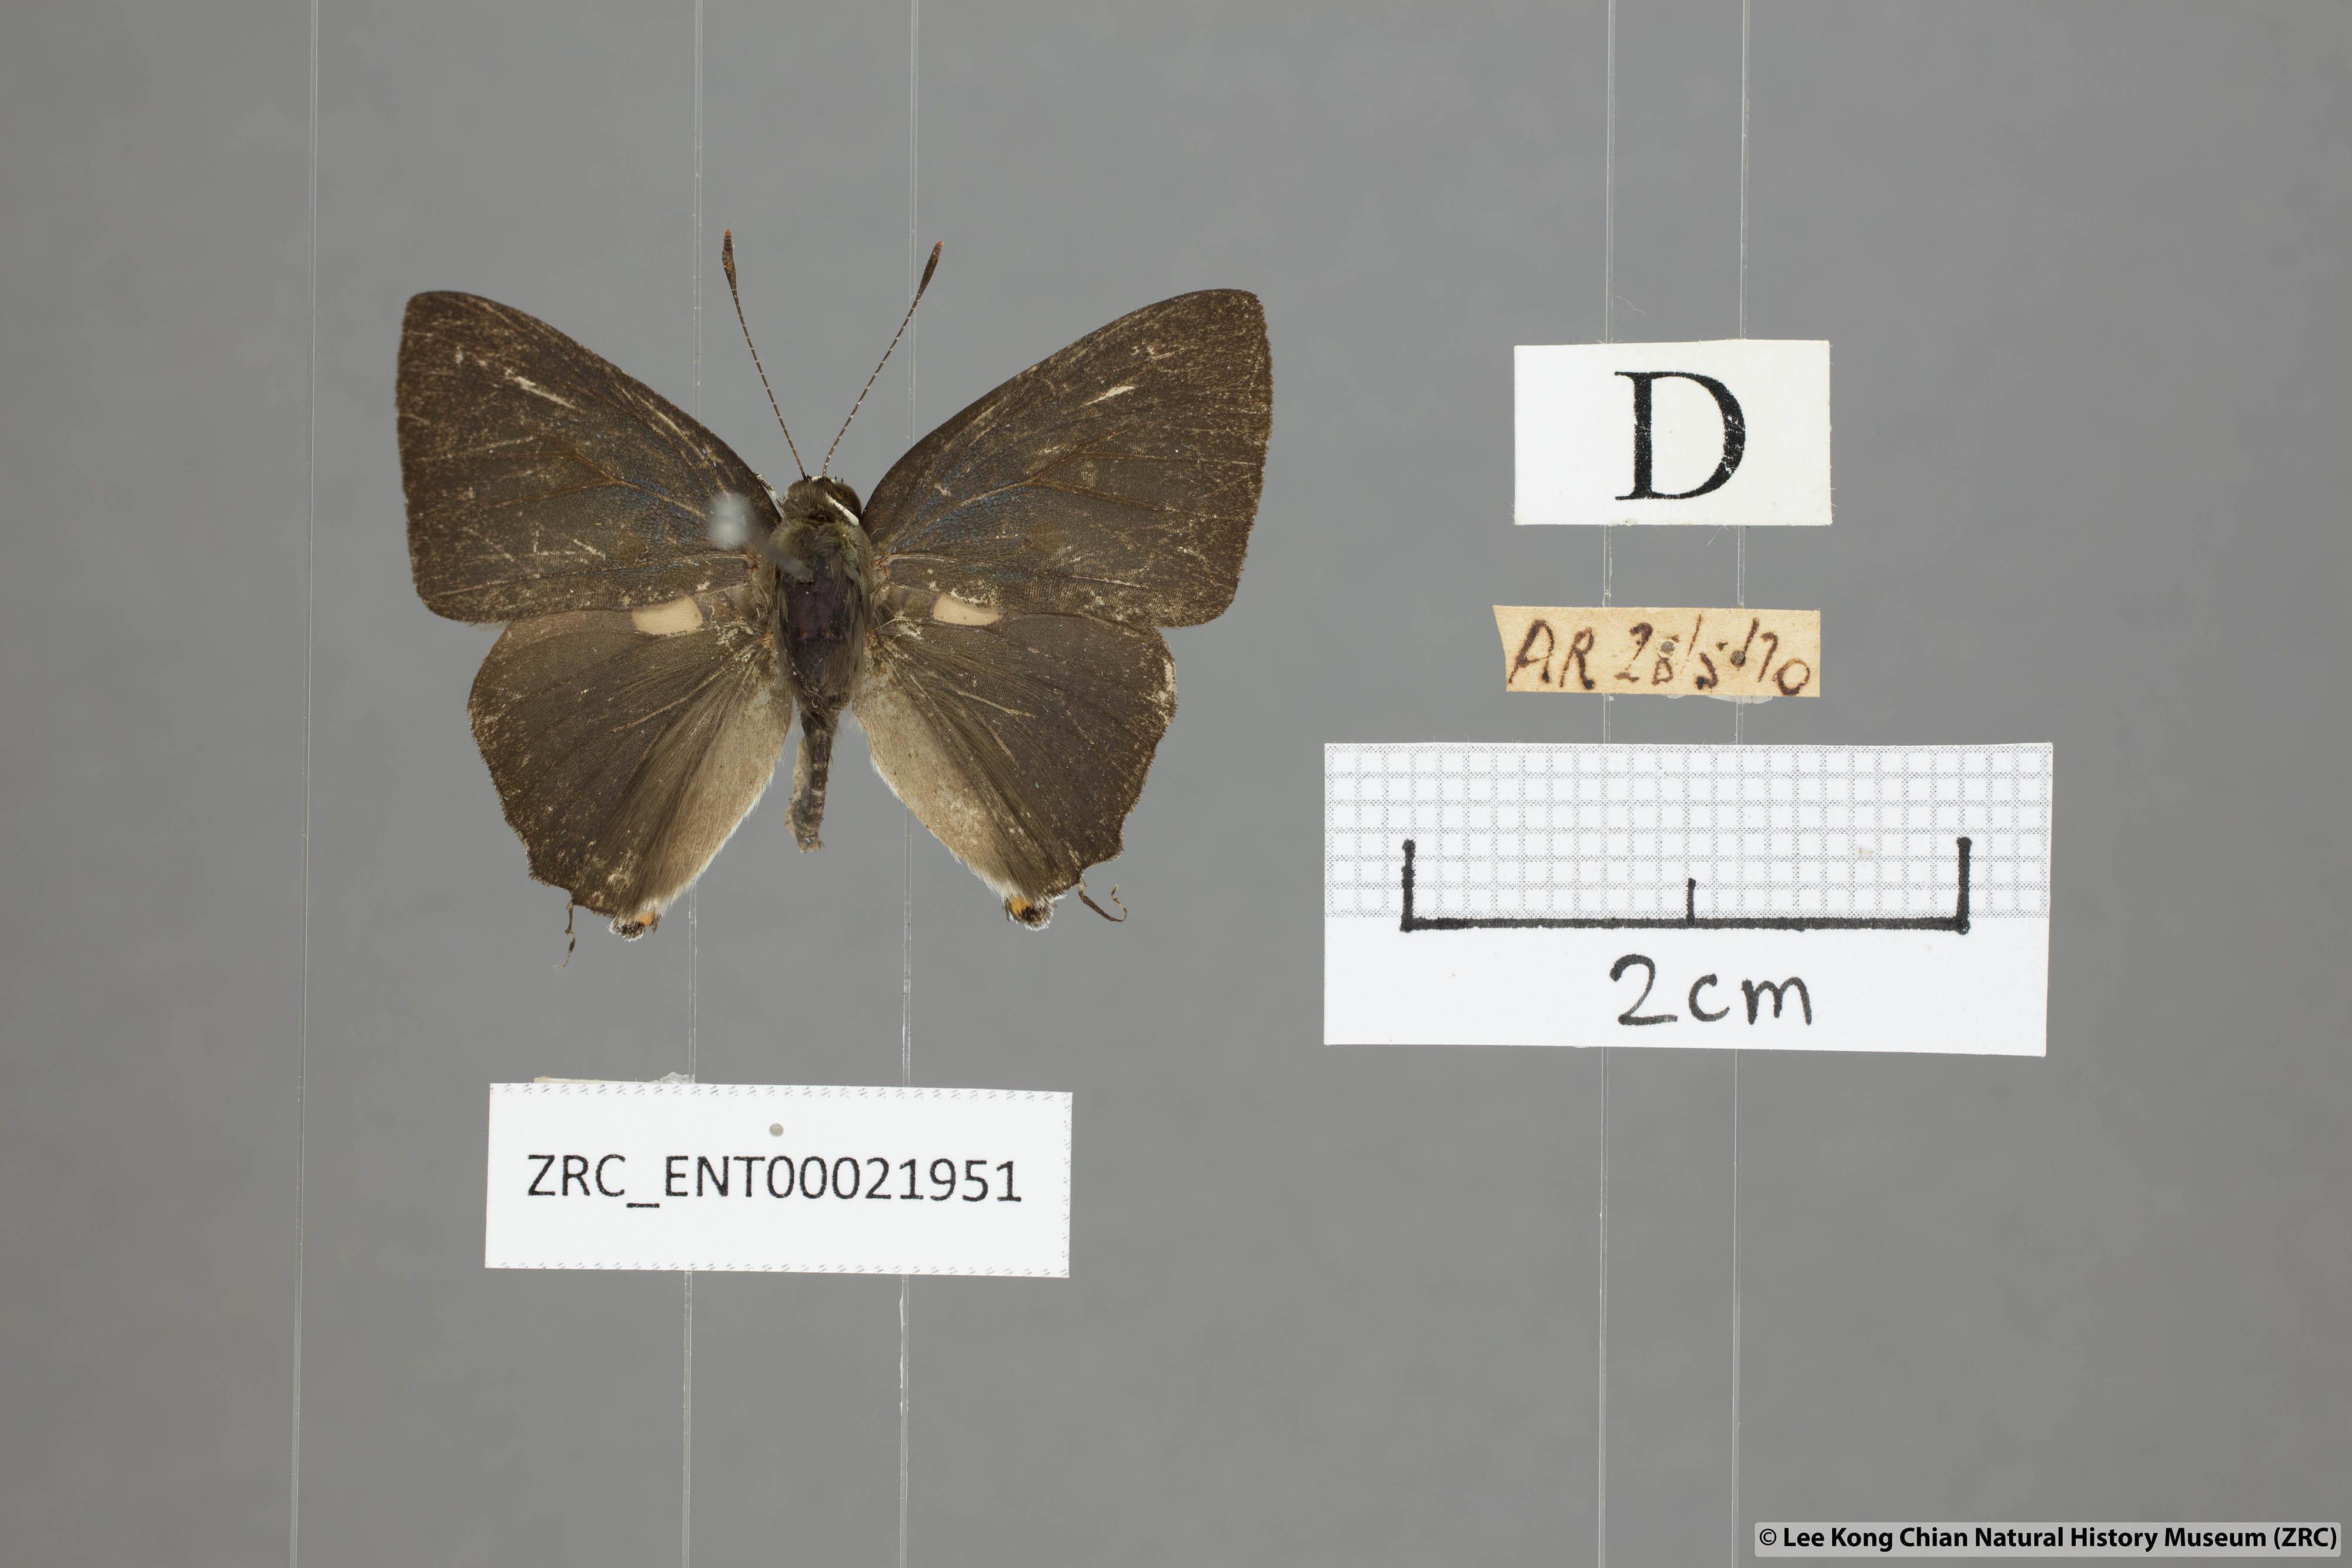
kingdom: Animalia
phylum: Arthropoda
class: Insecta
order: Lepidoptera
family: Lycaenidae
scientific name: Lycaenidae
